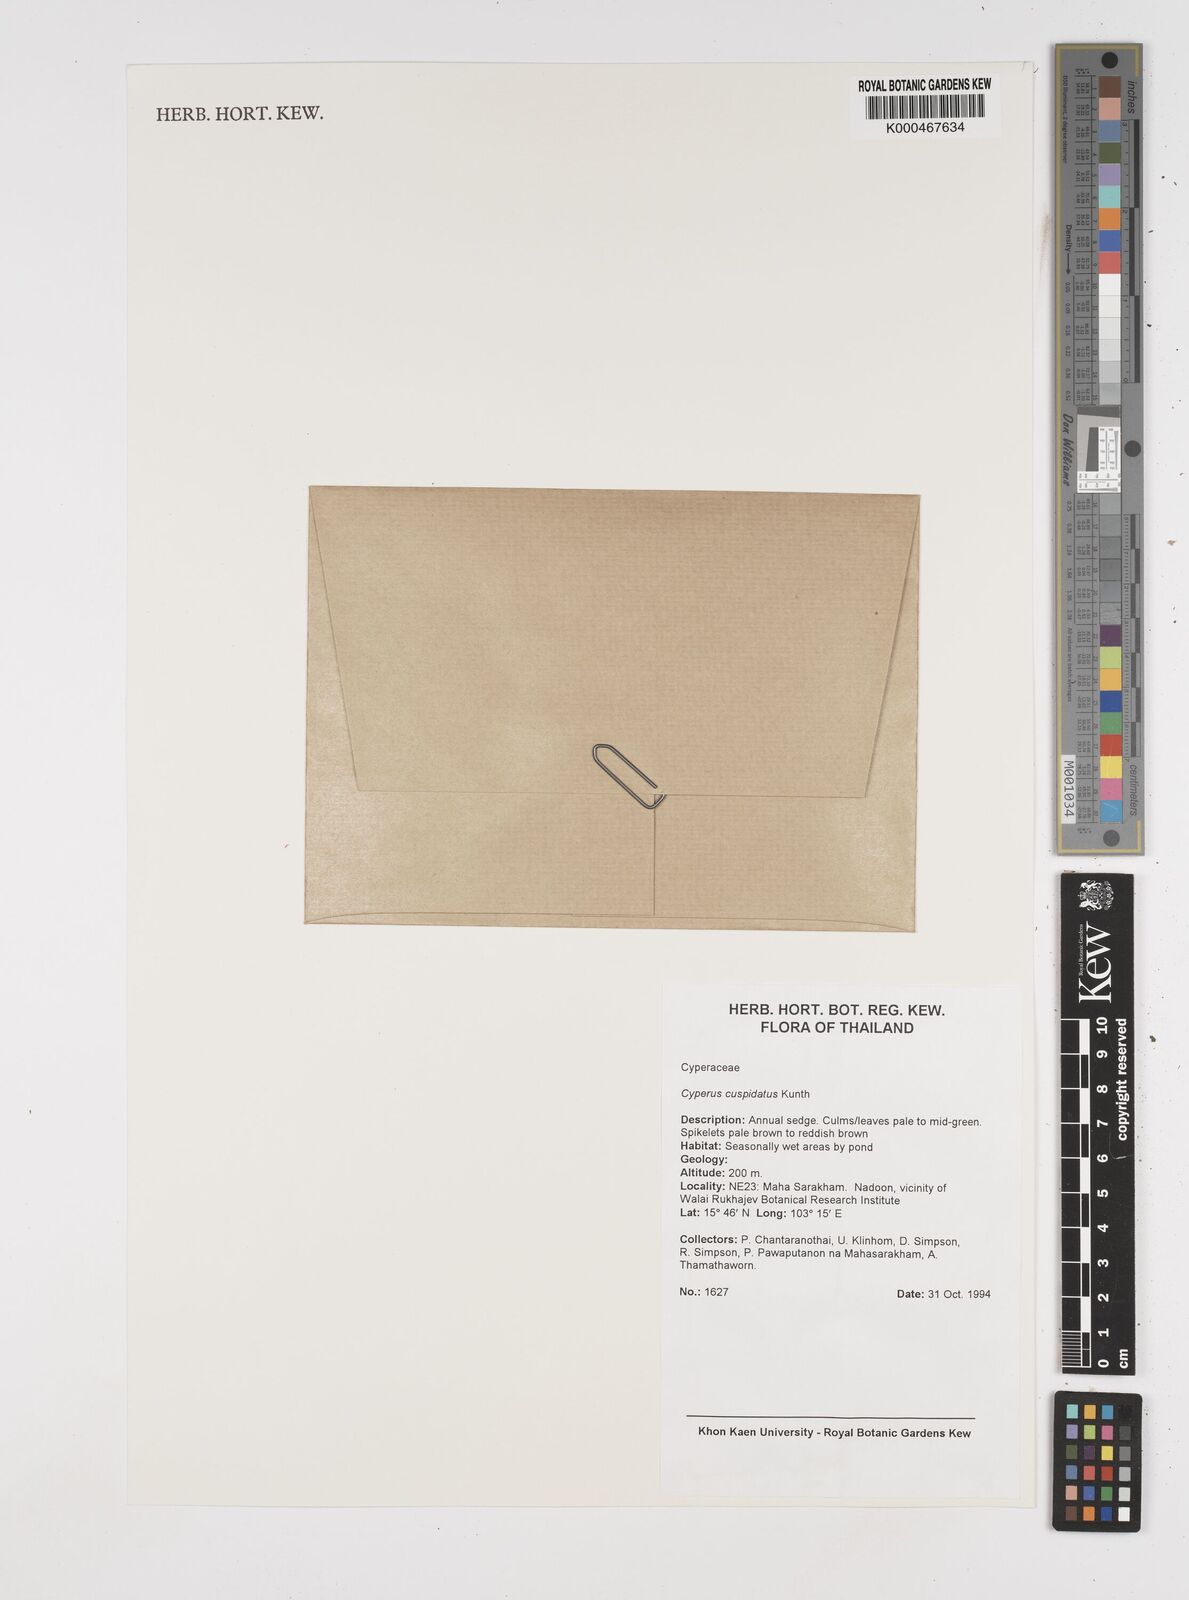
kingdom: Plantae
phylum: Tracheophyta
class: Liliopsida
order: Poales
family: Cyperaceae
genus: Cyperus
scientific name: Cyperus cuspidatus
